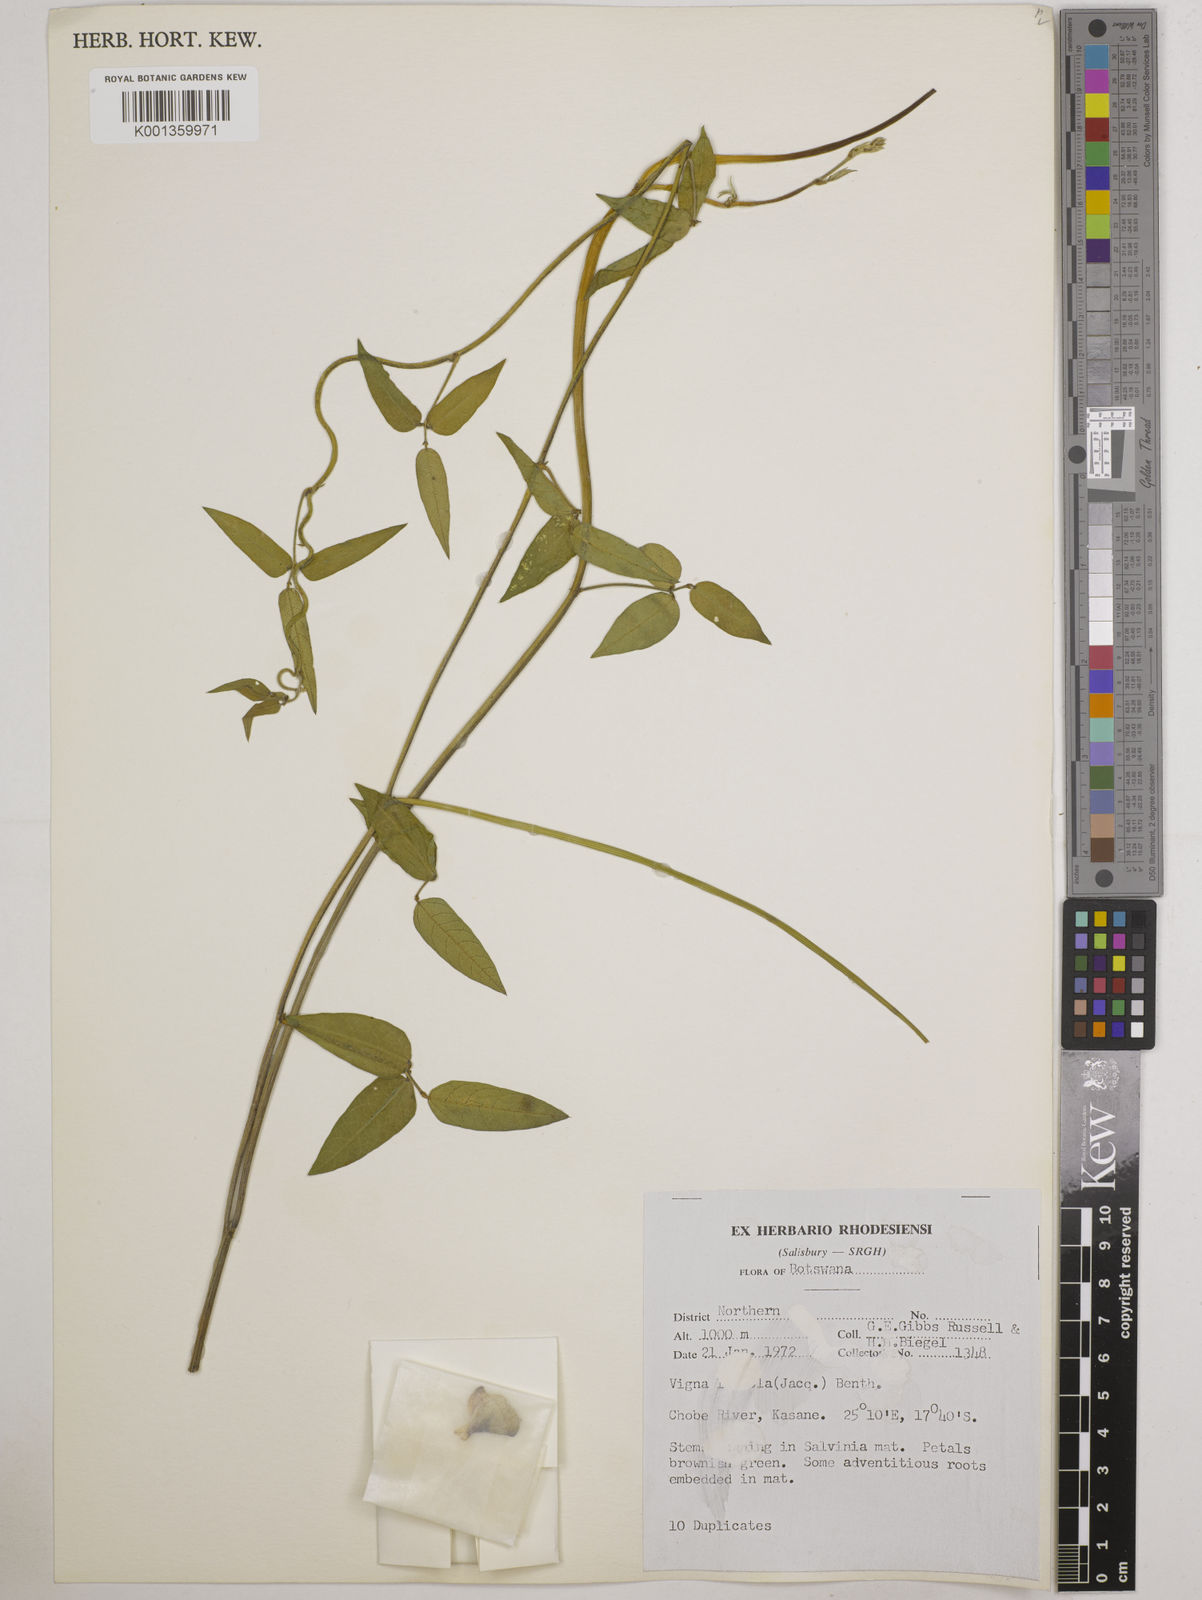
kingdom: Plantae
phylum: Tracheophyta
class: Magnoliopsida
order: Fabales
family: Fabaceae
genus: Vigna
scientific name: Vigna luteola
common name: Hairypod cowpea
